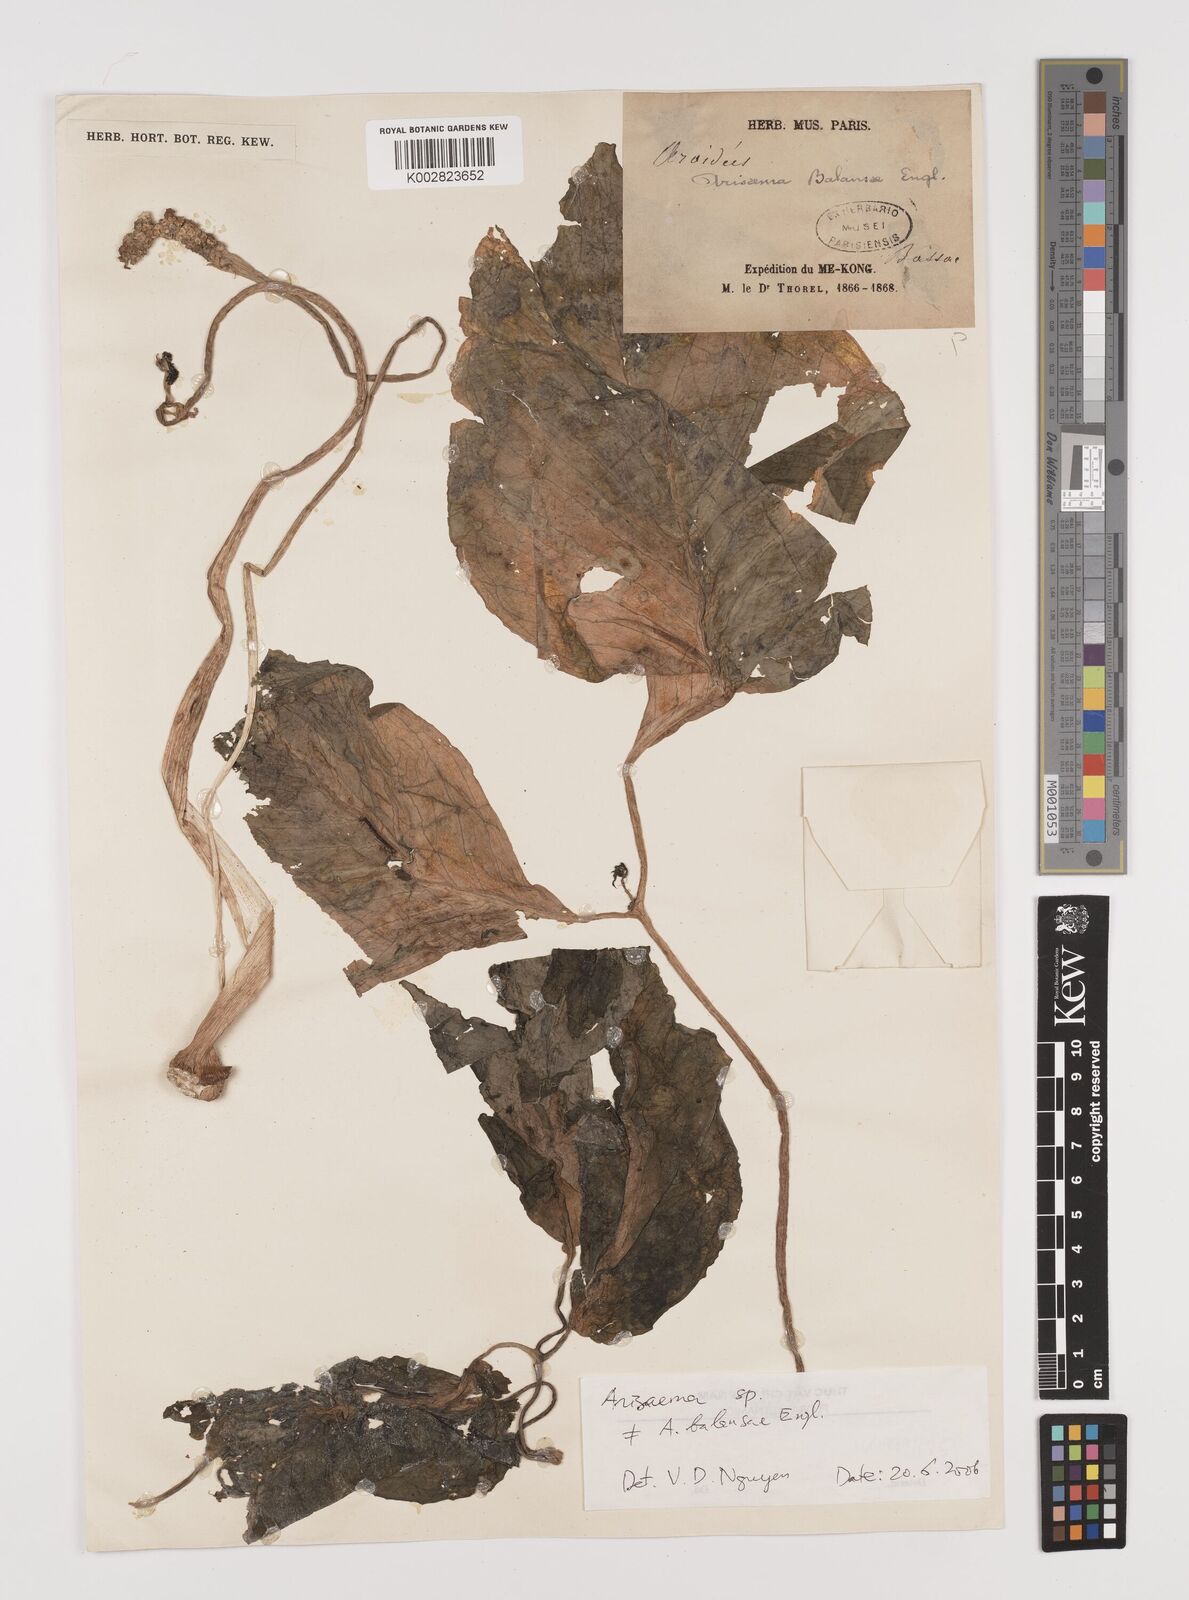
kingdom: Plantae
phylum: Tracheophyta
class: Liliopsida
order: Alismatales
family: Araceae
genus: Arisaema
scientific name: Arisaema
